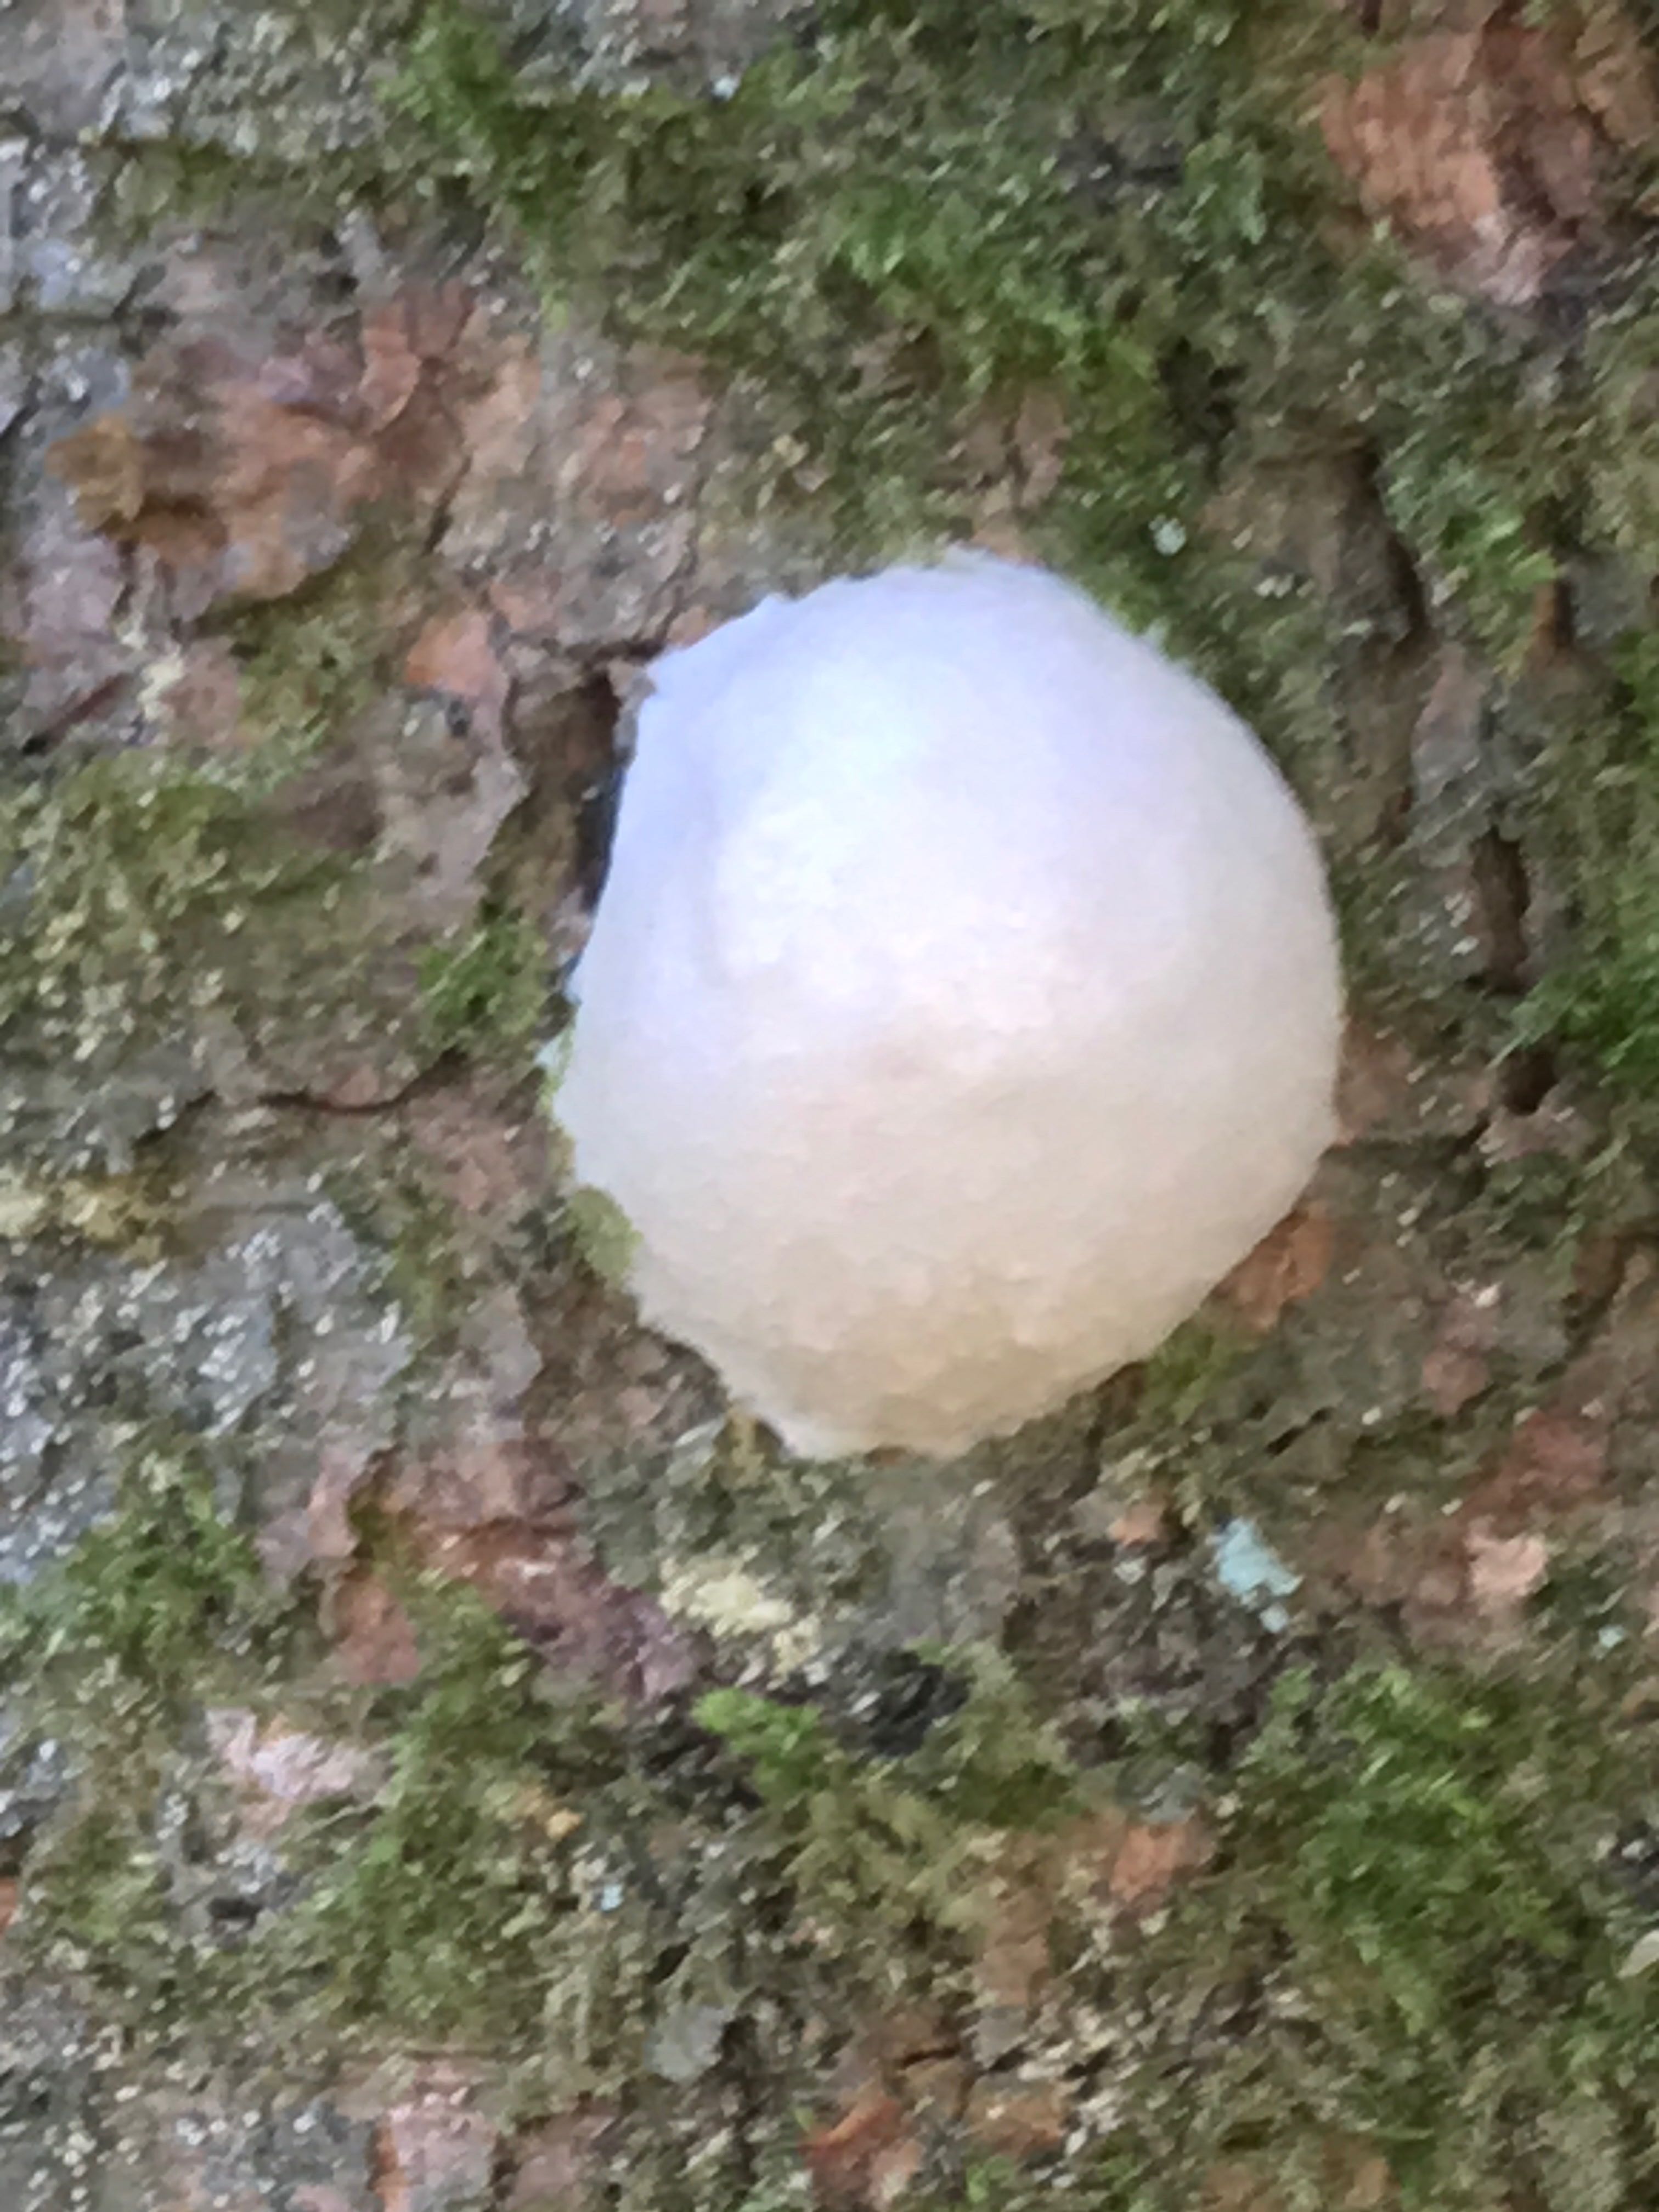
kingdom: Protozoa
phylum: Mycetozoa
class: Myxomycetes
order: Cribrariales
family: Tubiferaceae
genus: Reticularia
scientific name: Reticularia lycoperdon
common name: skinnende støvpude
